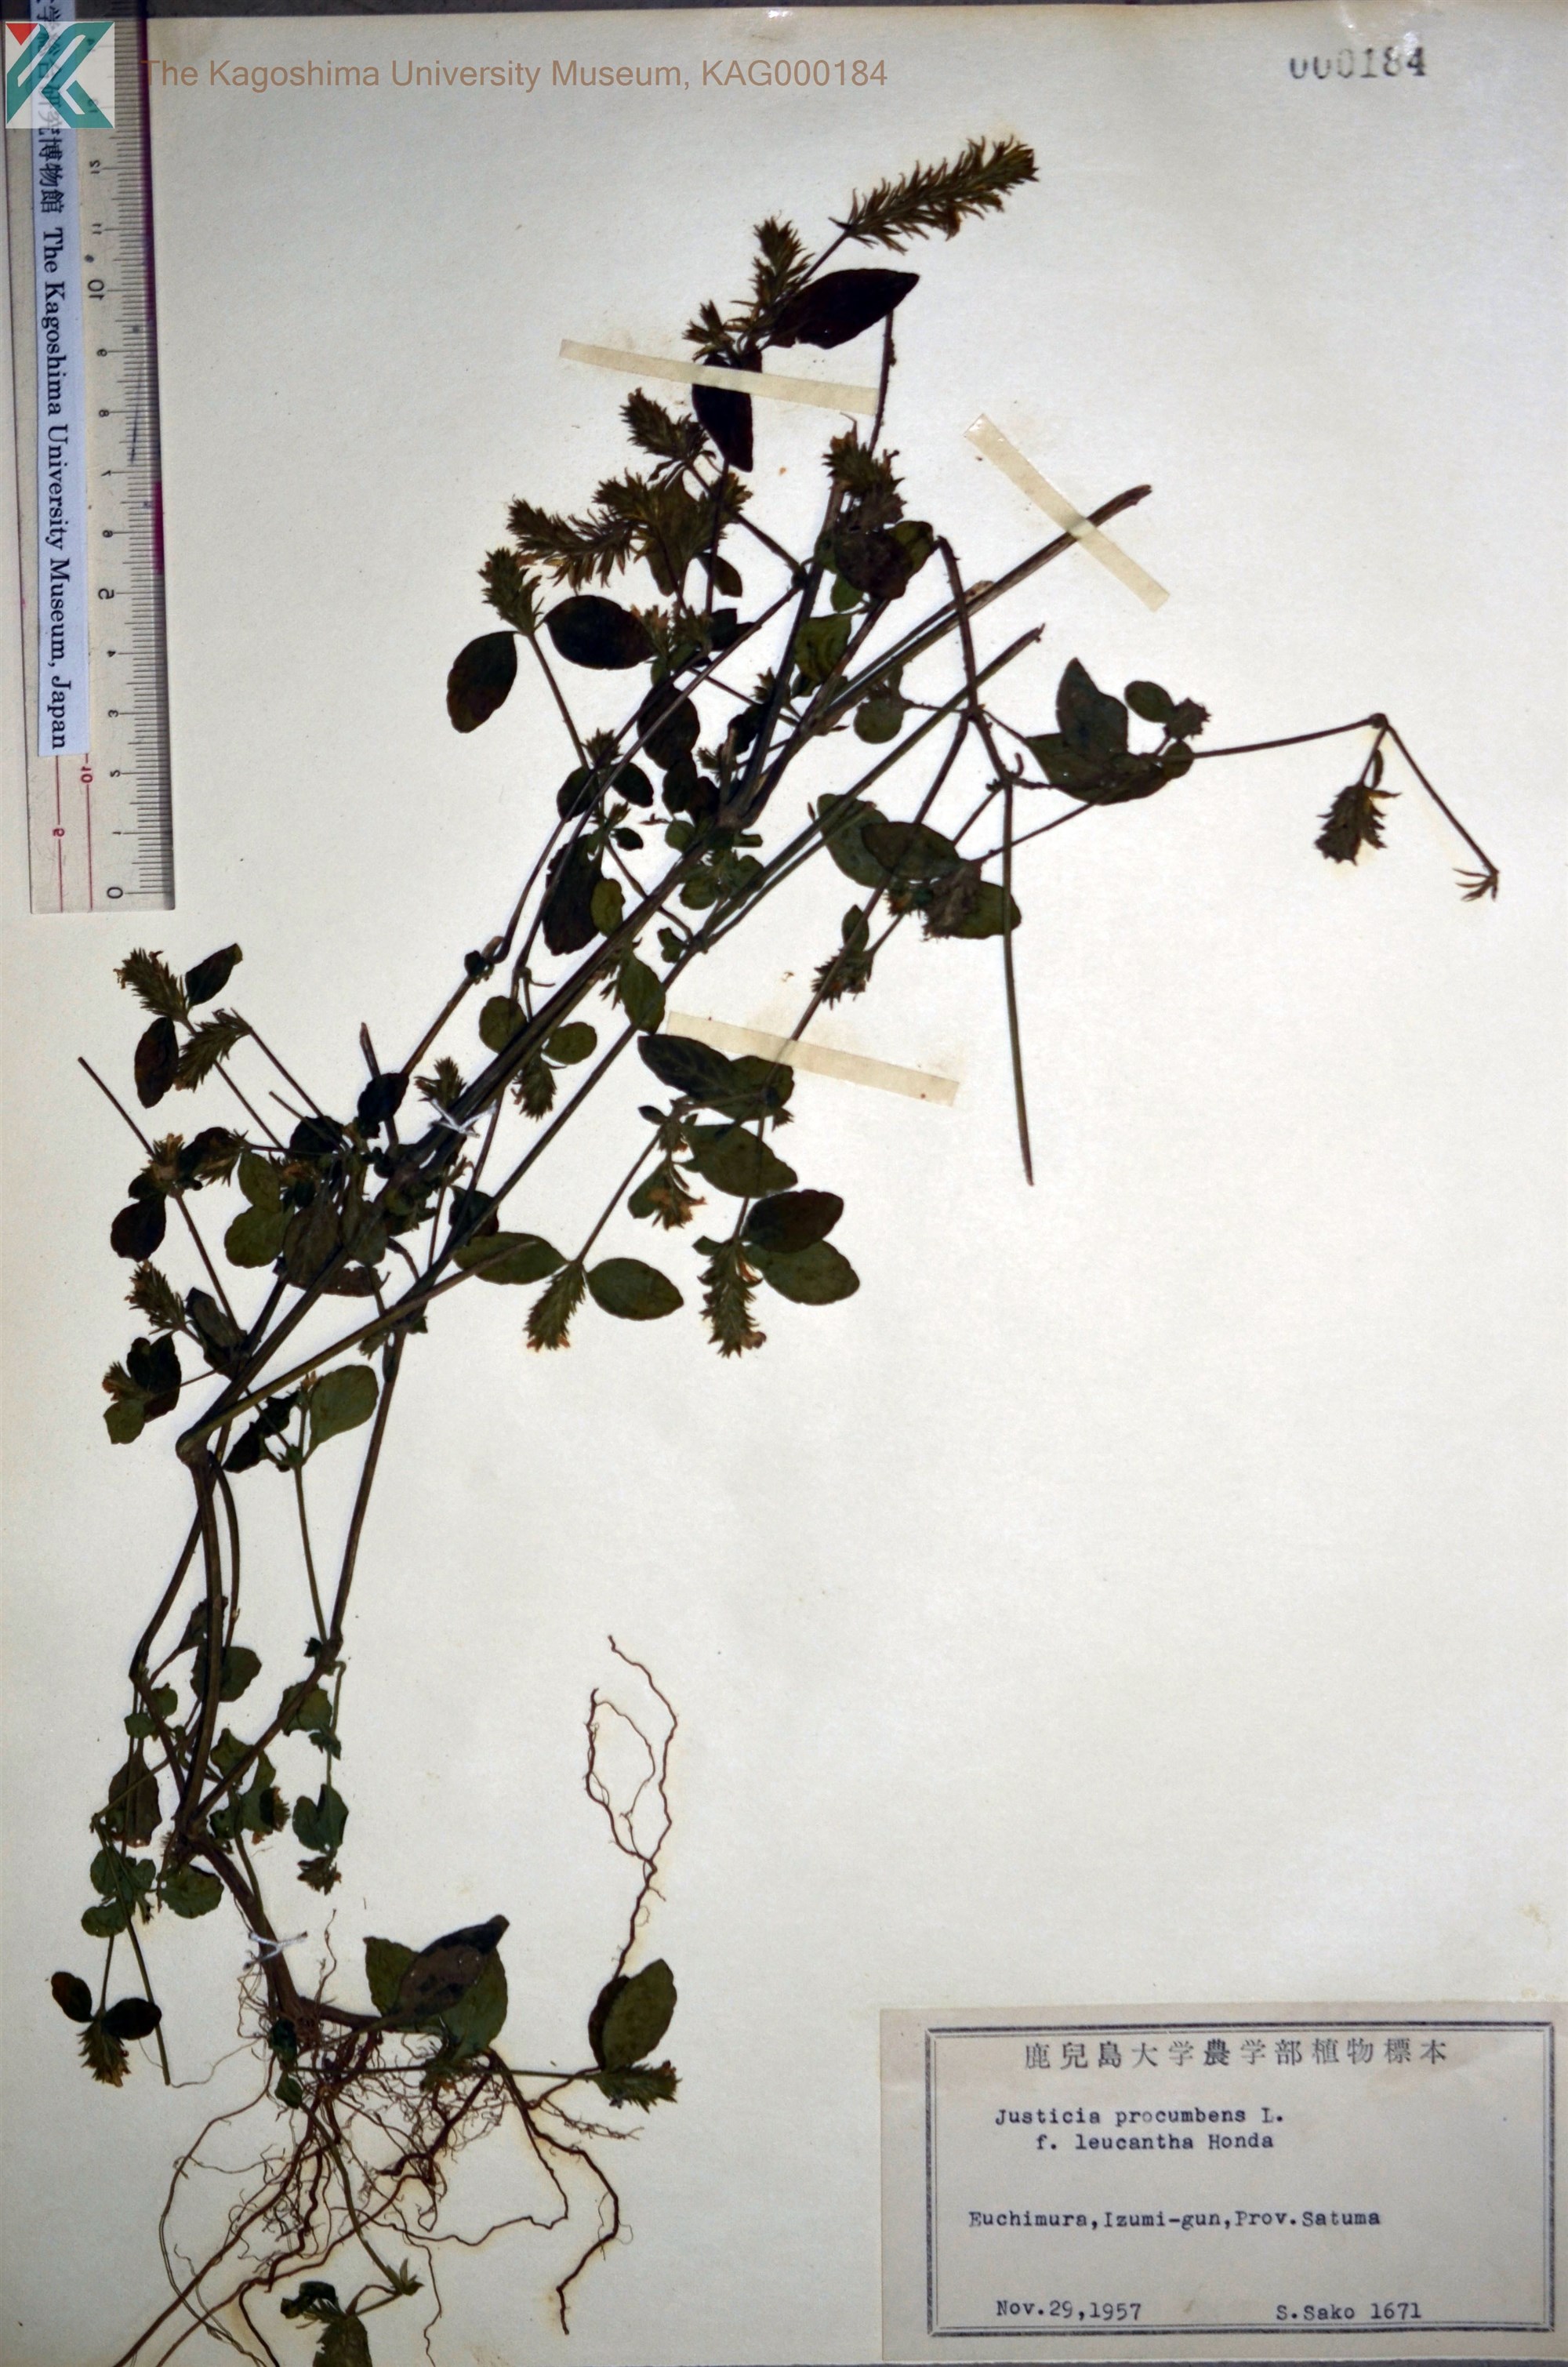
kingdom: Plantae
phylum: Tracheophyta
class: Magnoliopsida
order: Lamiales
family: Acanthaceae
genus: Rostellularia
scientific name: Rostellularia procumbens
